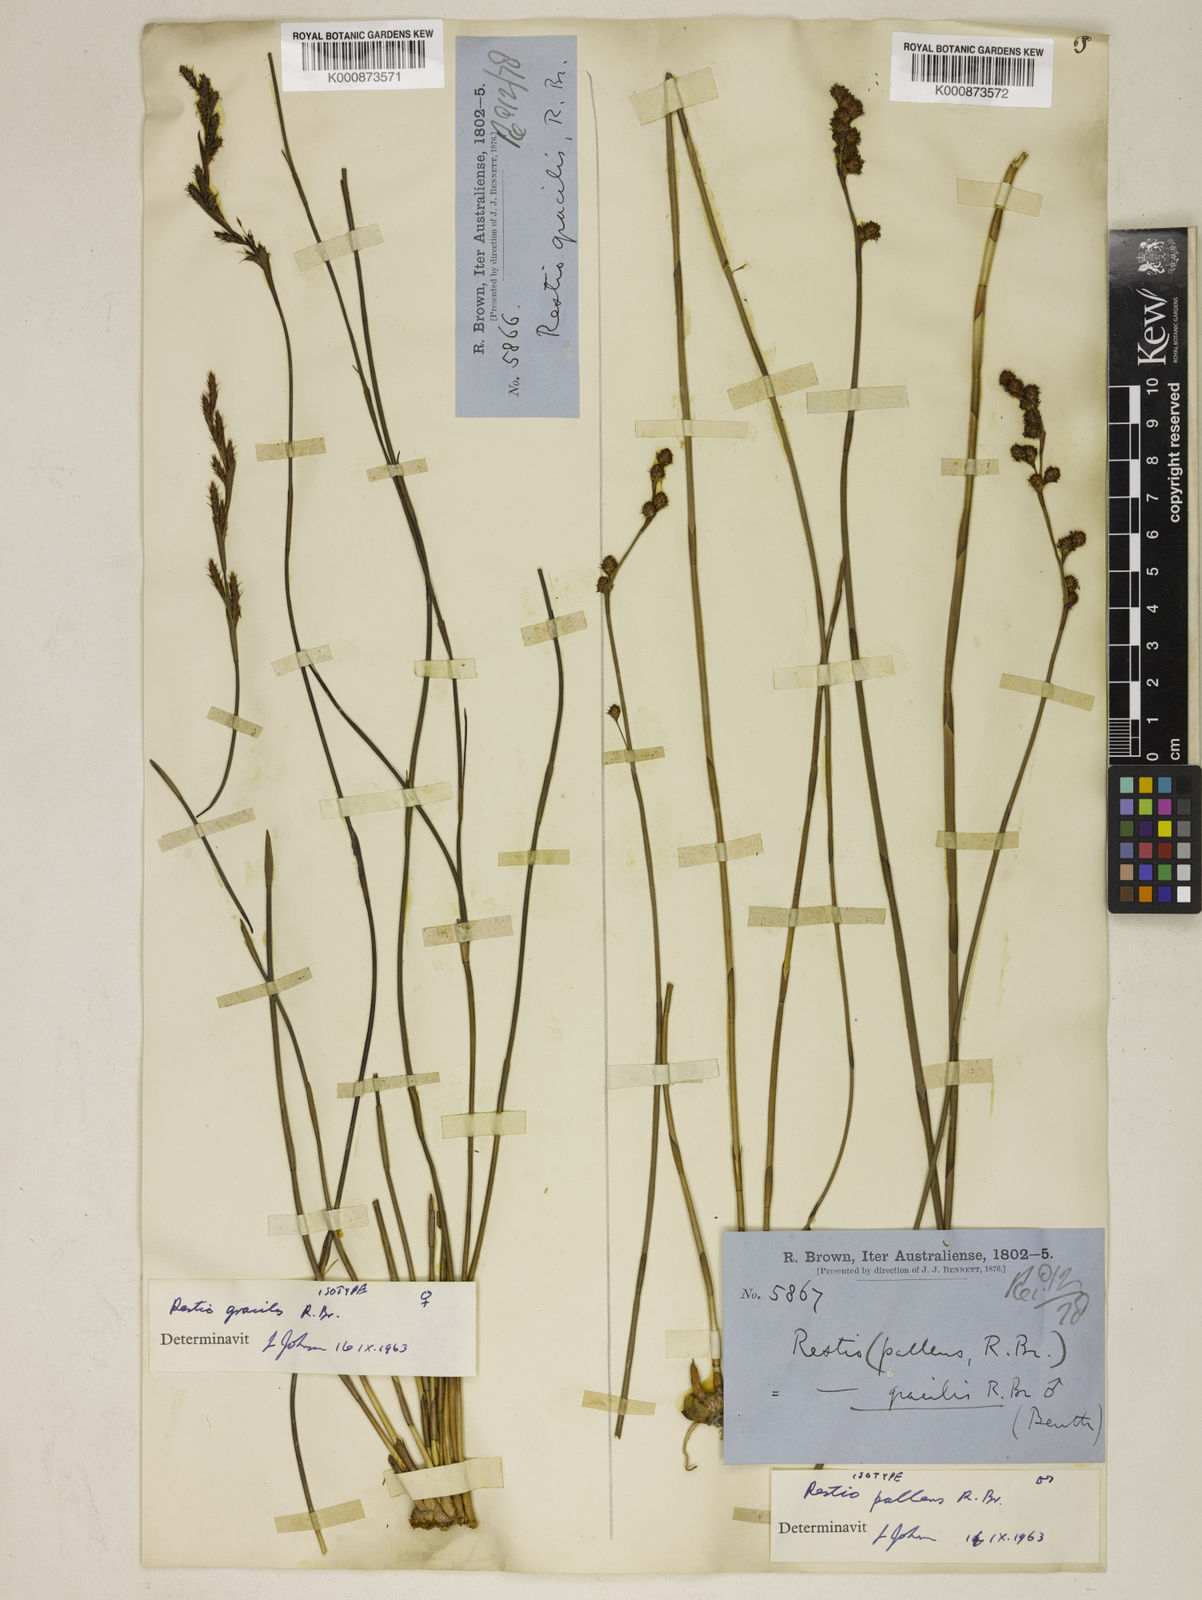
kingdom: Plantae
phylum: Tracheophyta
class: Liliopsida
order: Poales
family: Restionaceae
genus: Baloskion
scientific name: Baloskion gracile
